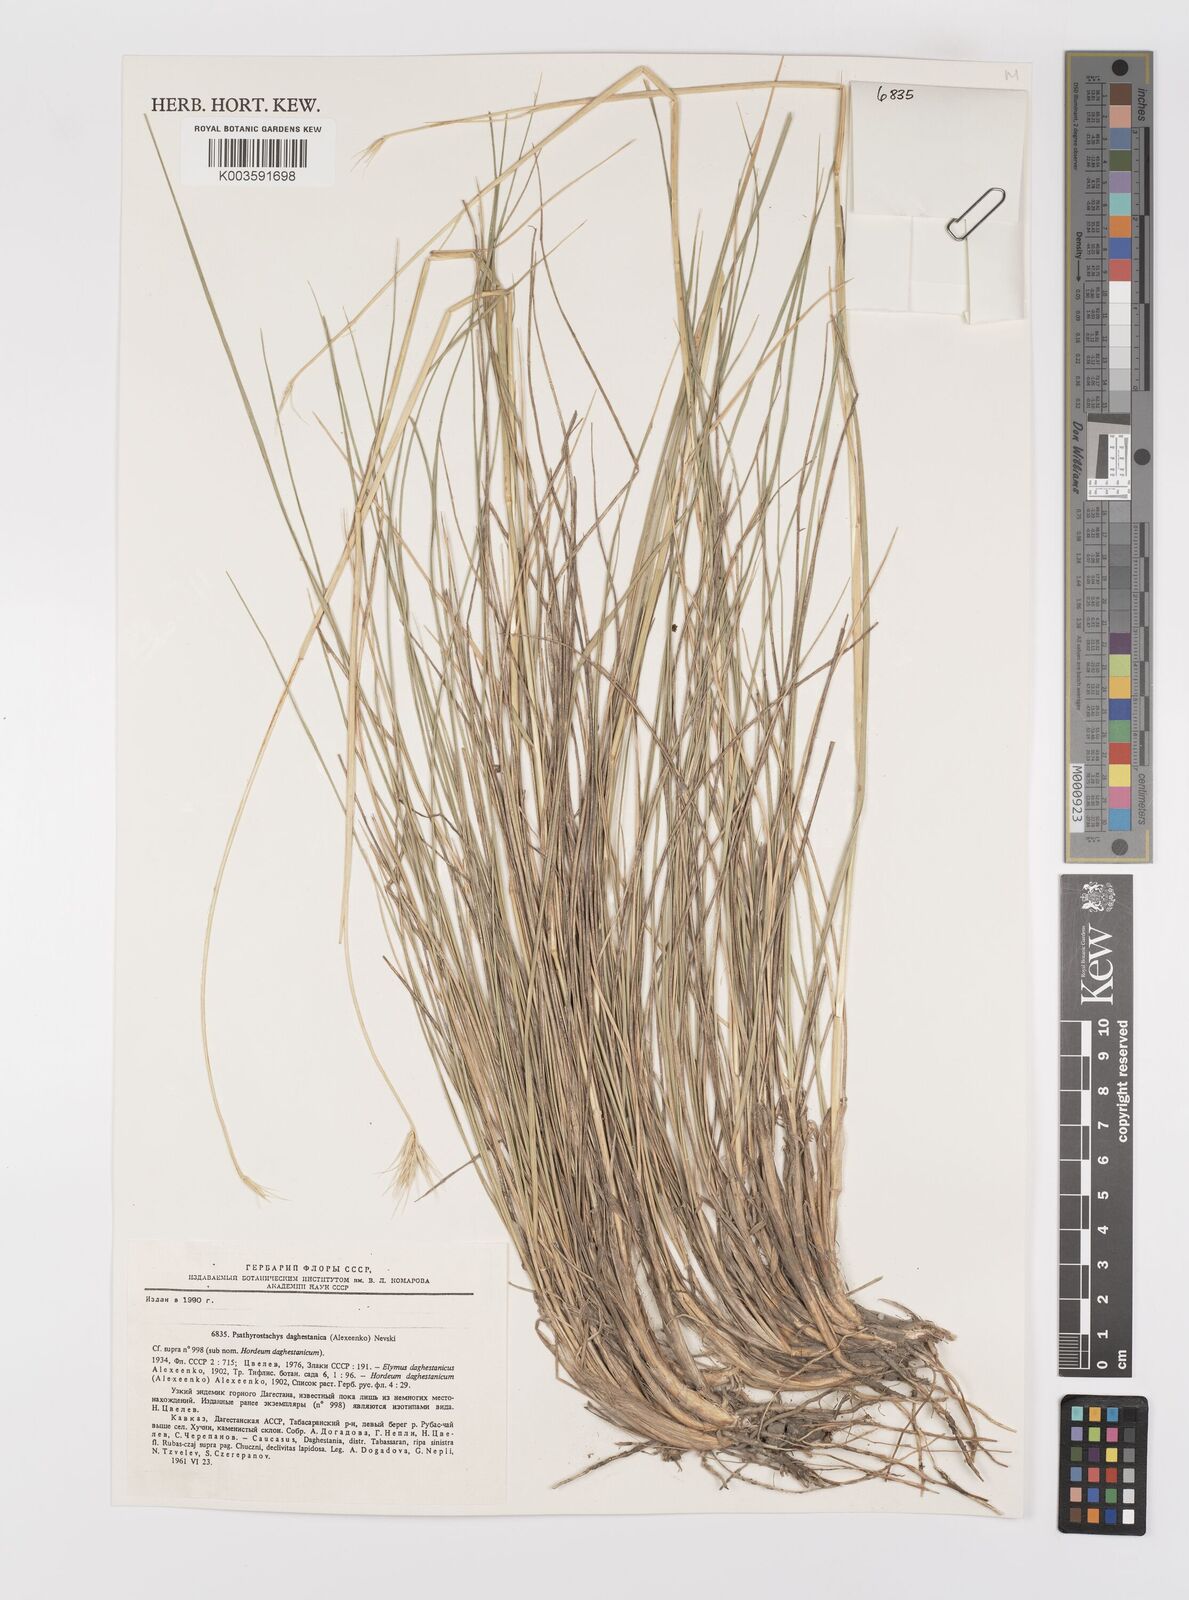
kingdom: Plantae
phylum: Tracheophyta
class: Liliopsida
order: Poales
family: Poaceae
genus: Psathyrostachys
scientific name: Psathyrostachys dagestanica
